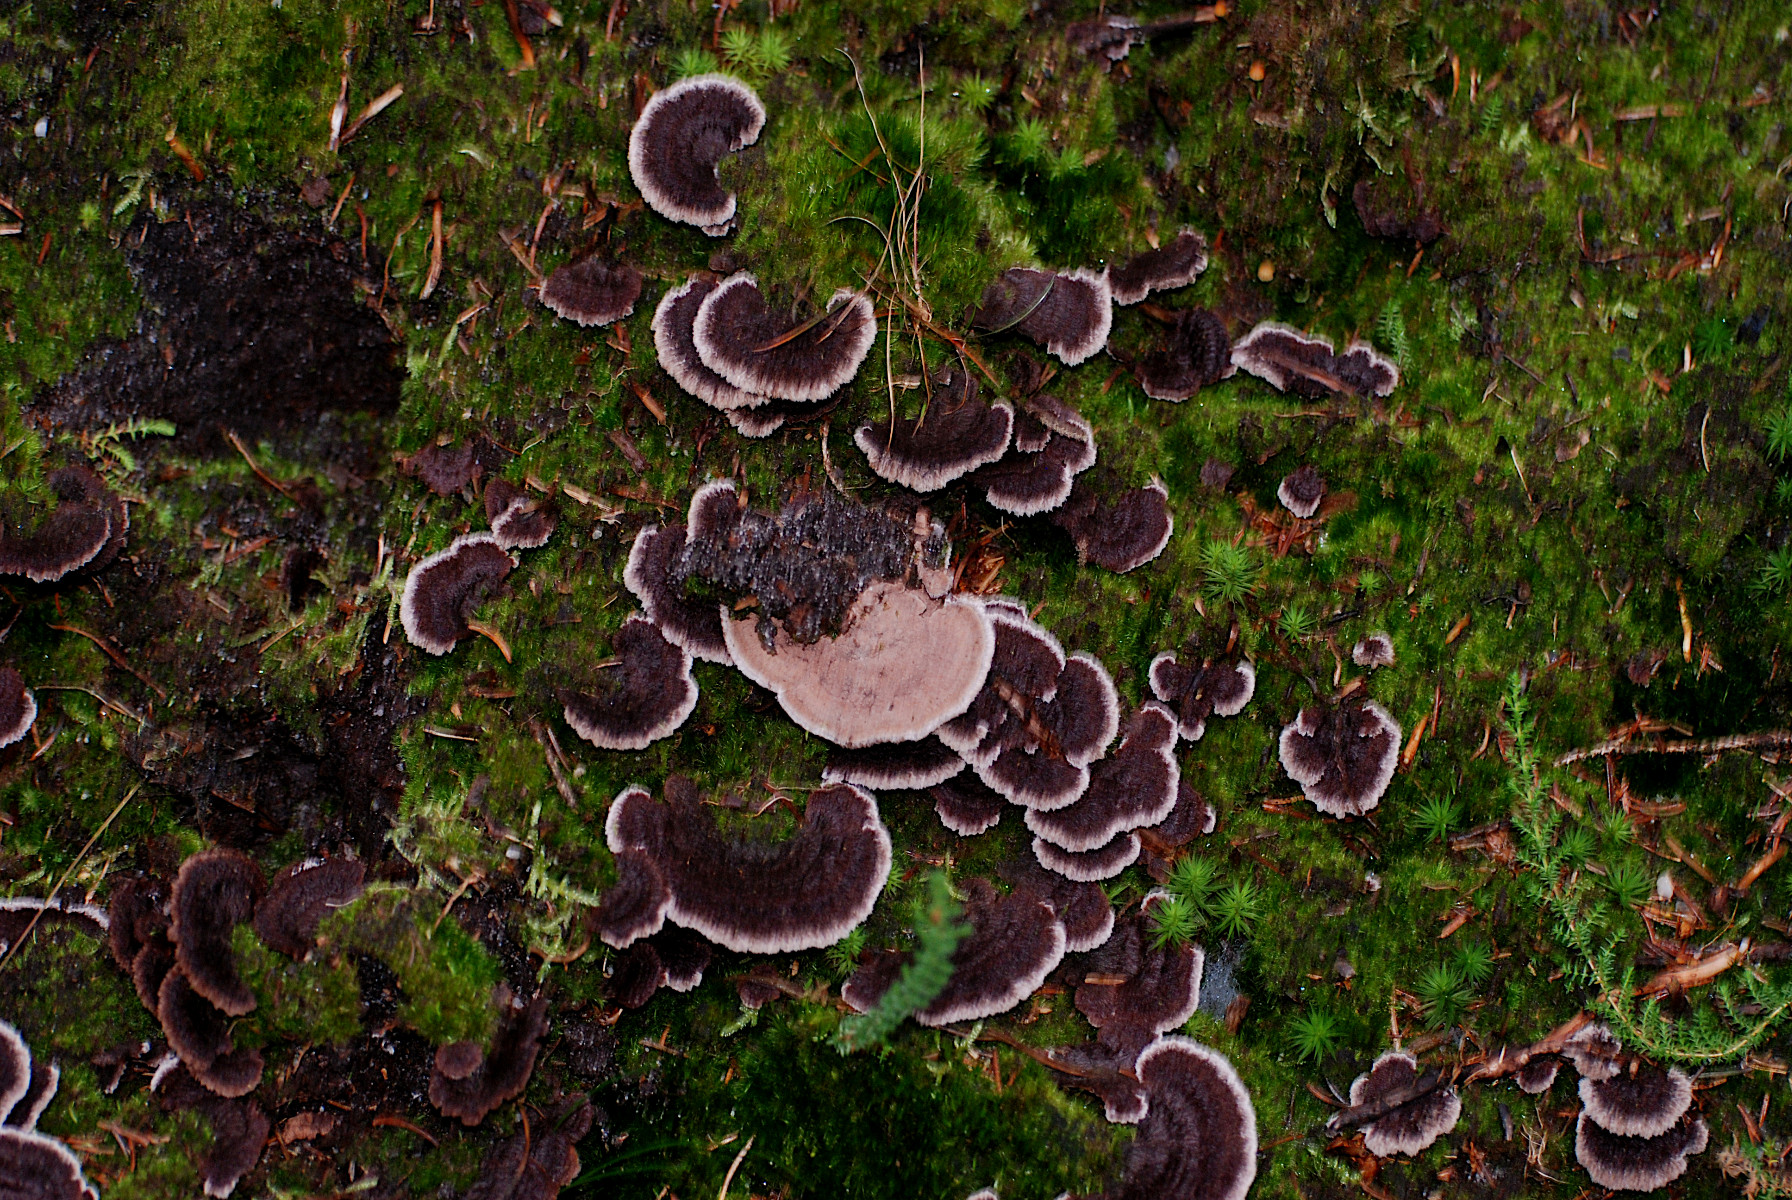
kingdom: Fungi
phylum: Basidiomycota
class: Agaricomycetes
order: Thelephorales
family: Thelephoraceae
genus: Thelephora
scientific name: Thelephora terrestris
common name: fliget frynsesvamp
